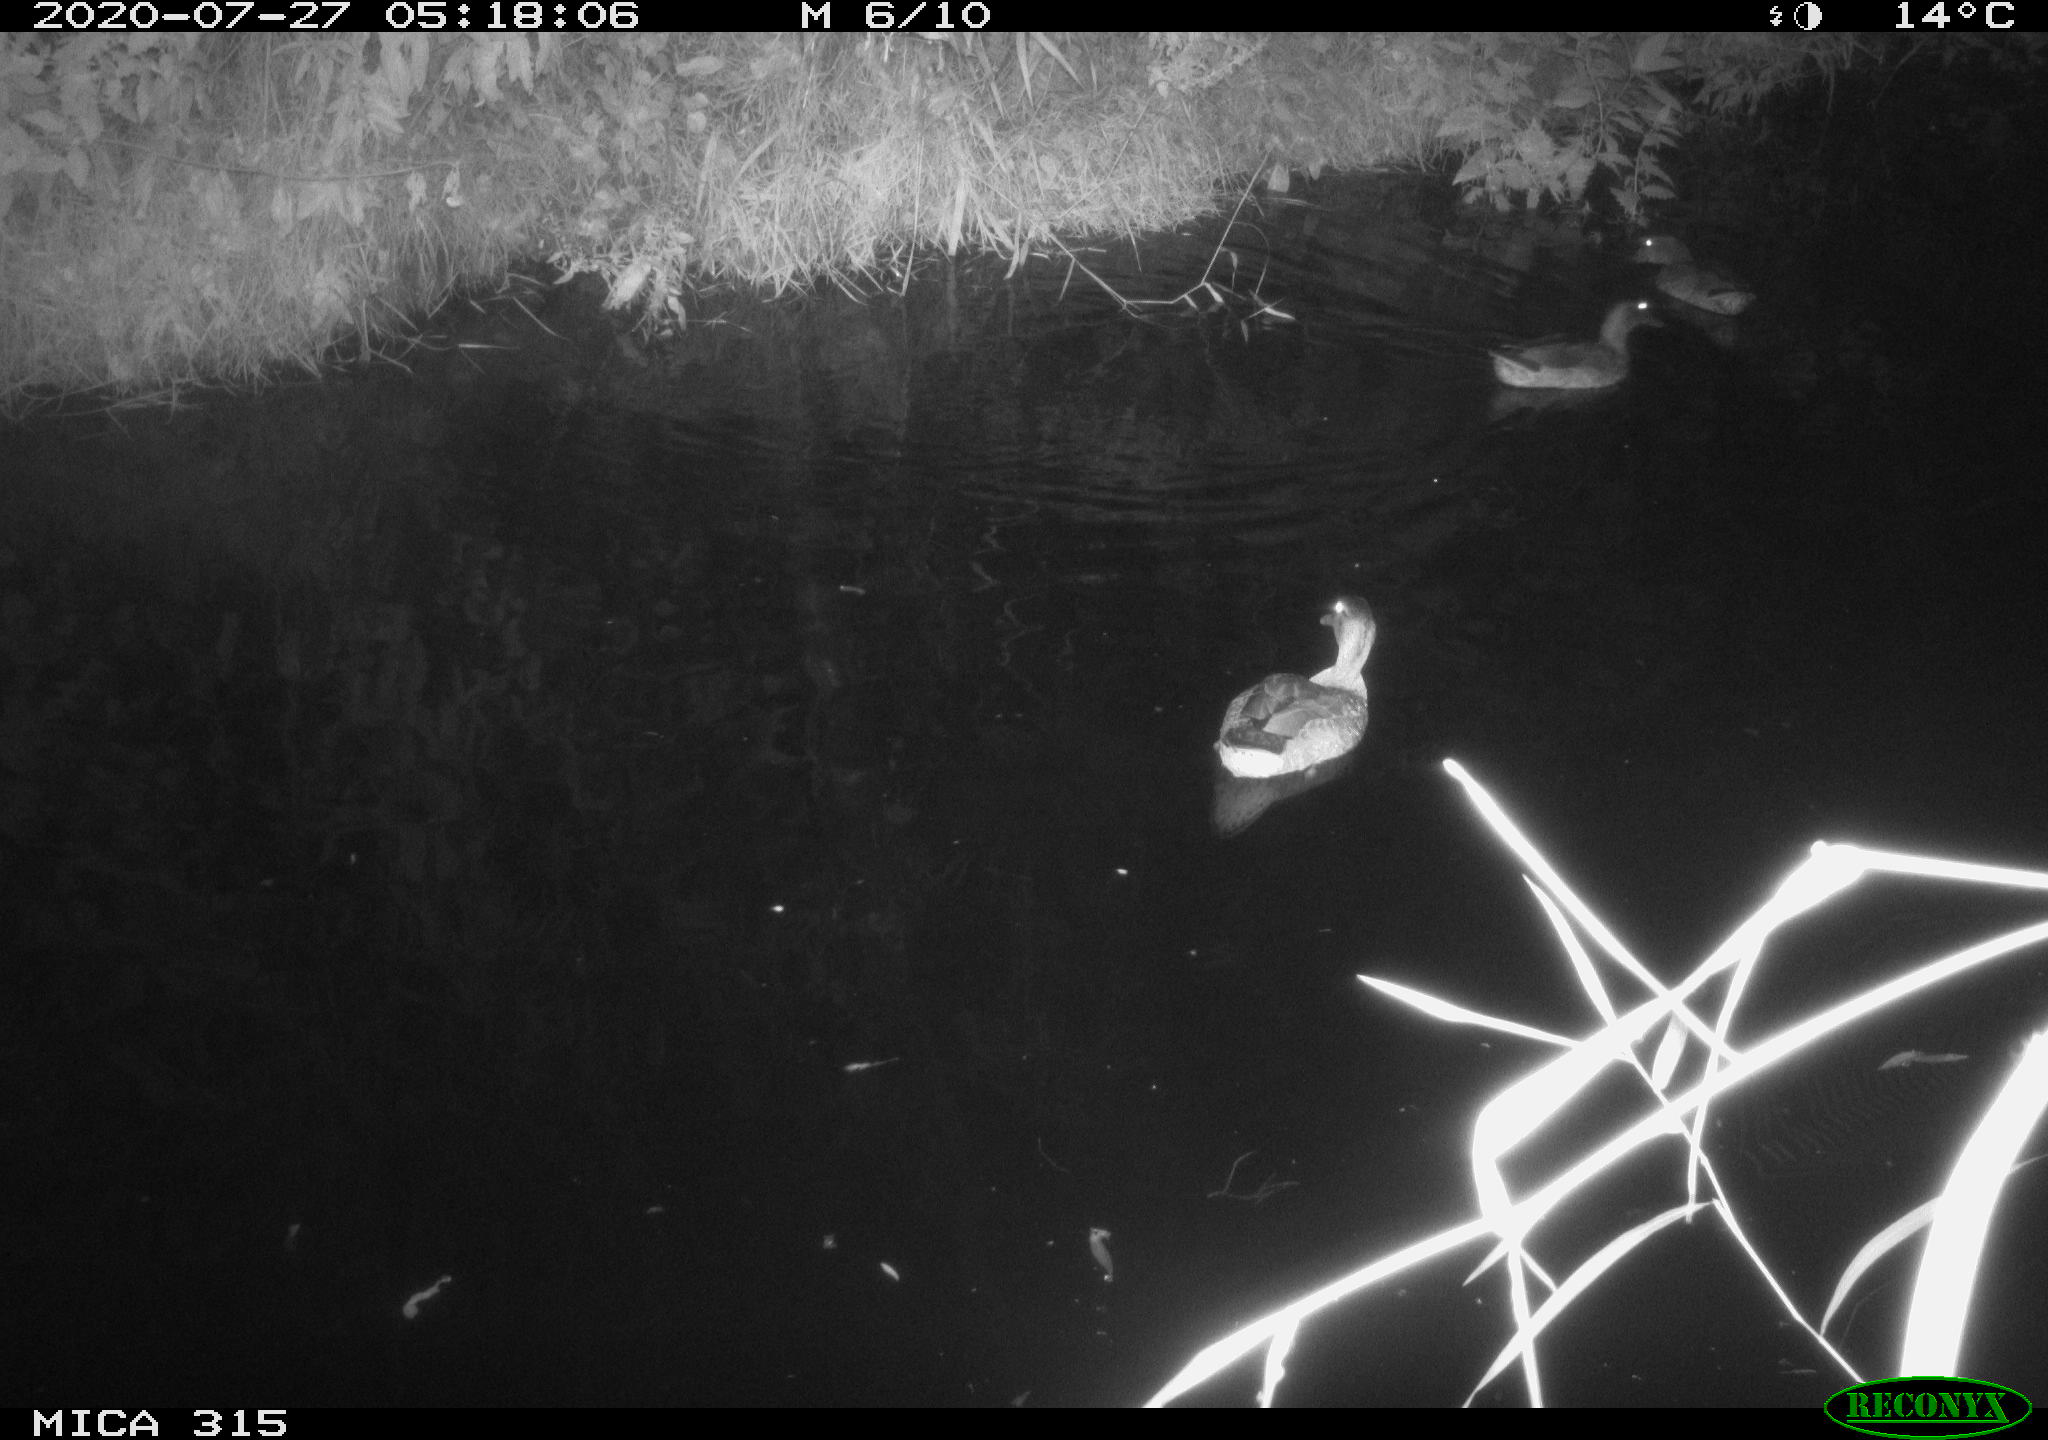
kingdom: Animalia
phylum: Chordata
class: Aves
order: Anseriformes
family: Anatidae
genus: Anas
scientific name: Anas platyrhynchos
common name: Mallard
